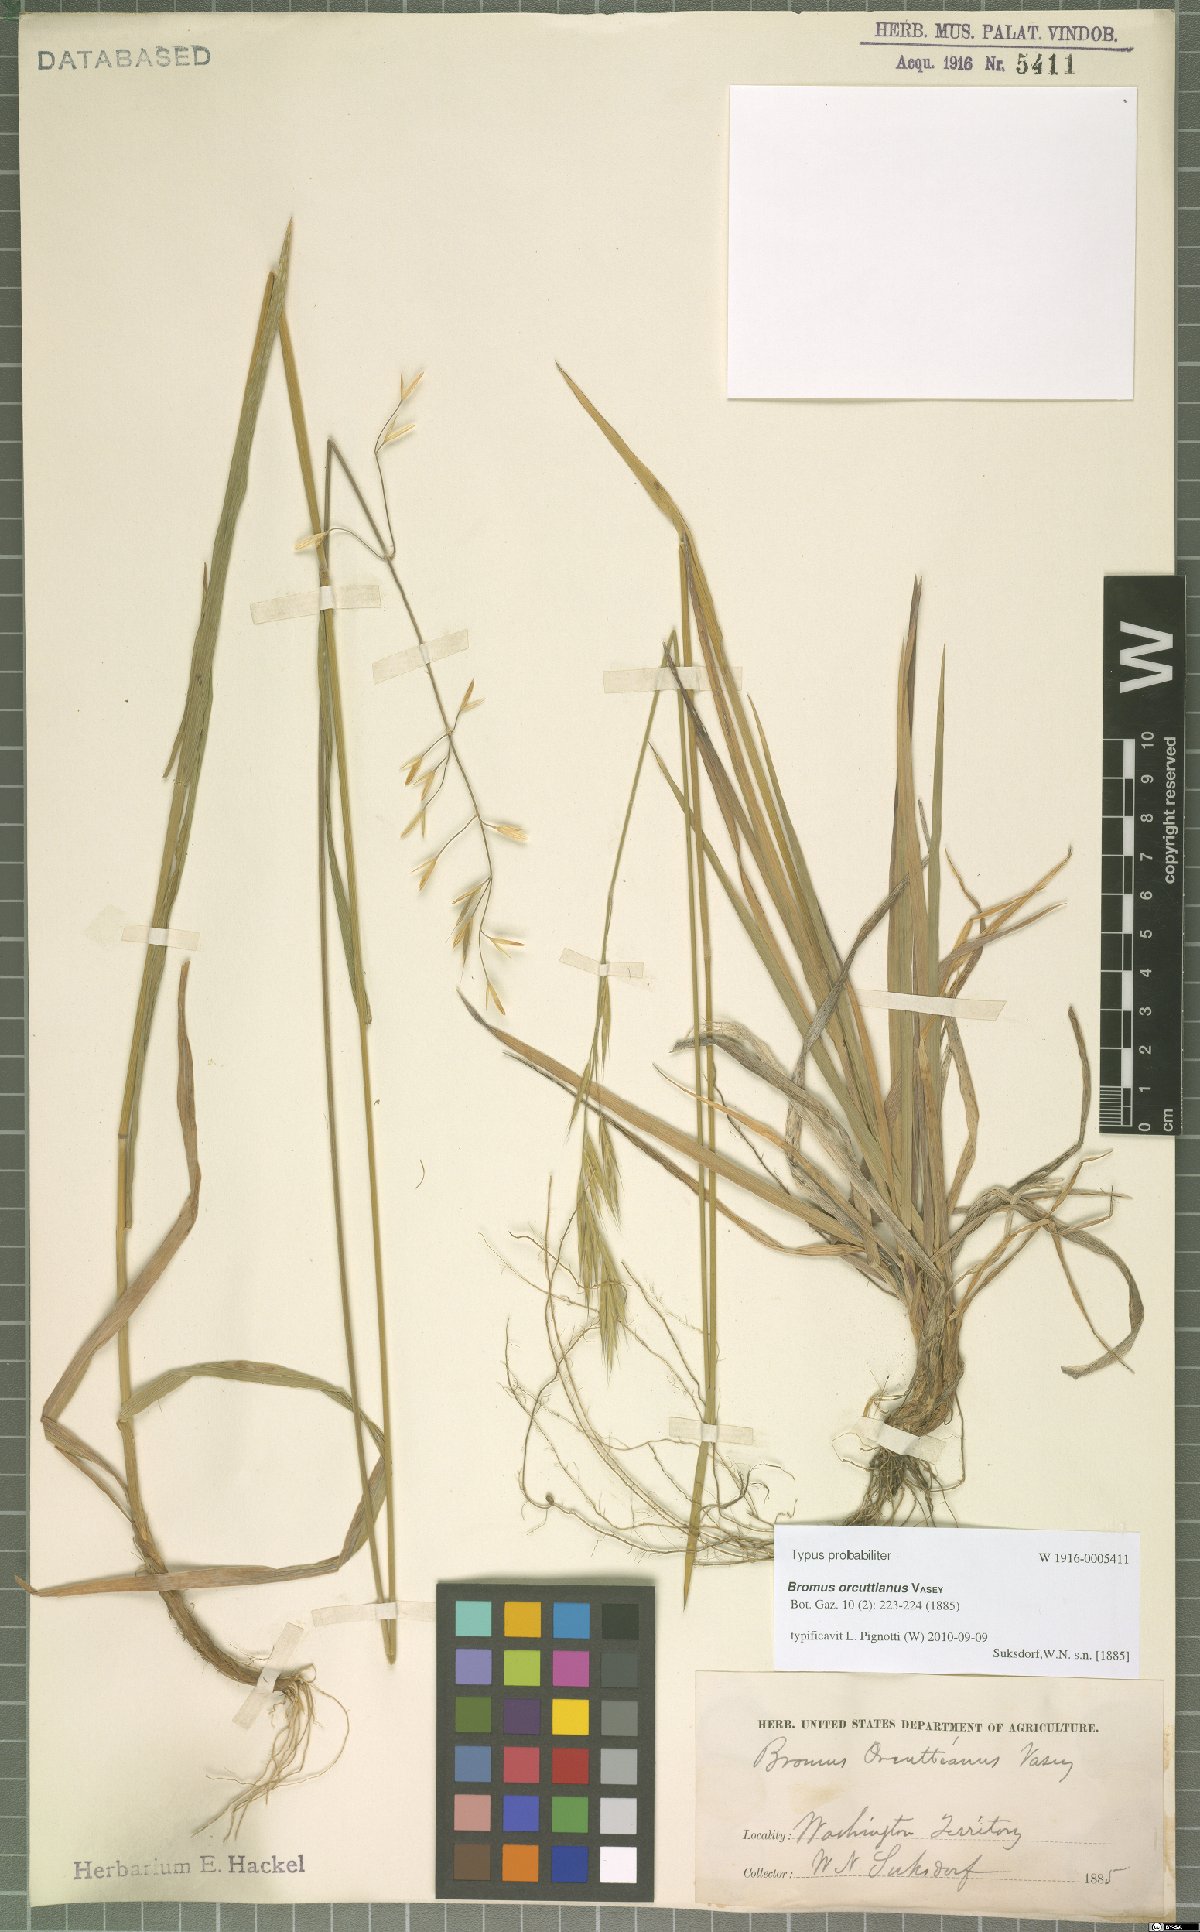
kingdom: Plantae
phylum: Tracheophyta
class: Liliopsida
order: Poales
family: Poaceae
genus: Bromus
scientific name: Bromus orcuttianus
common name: Orcutt's brome
